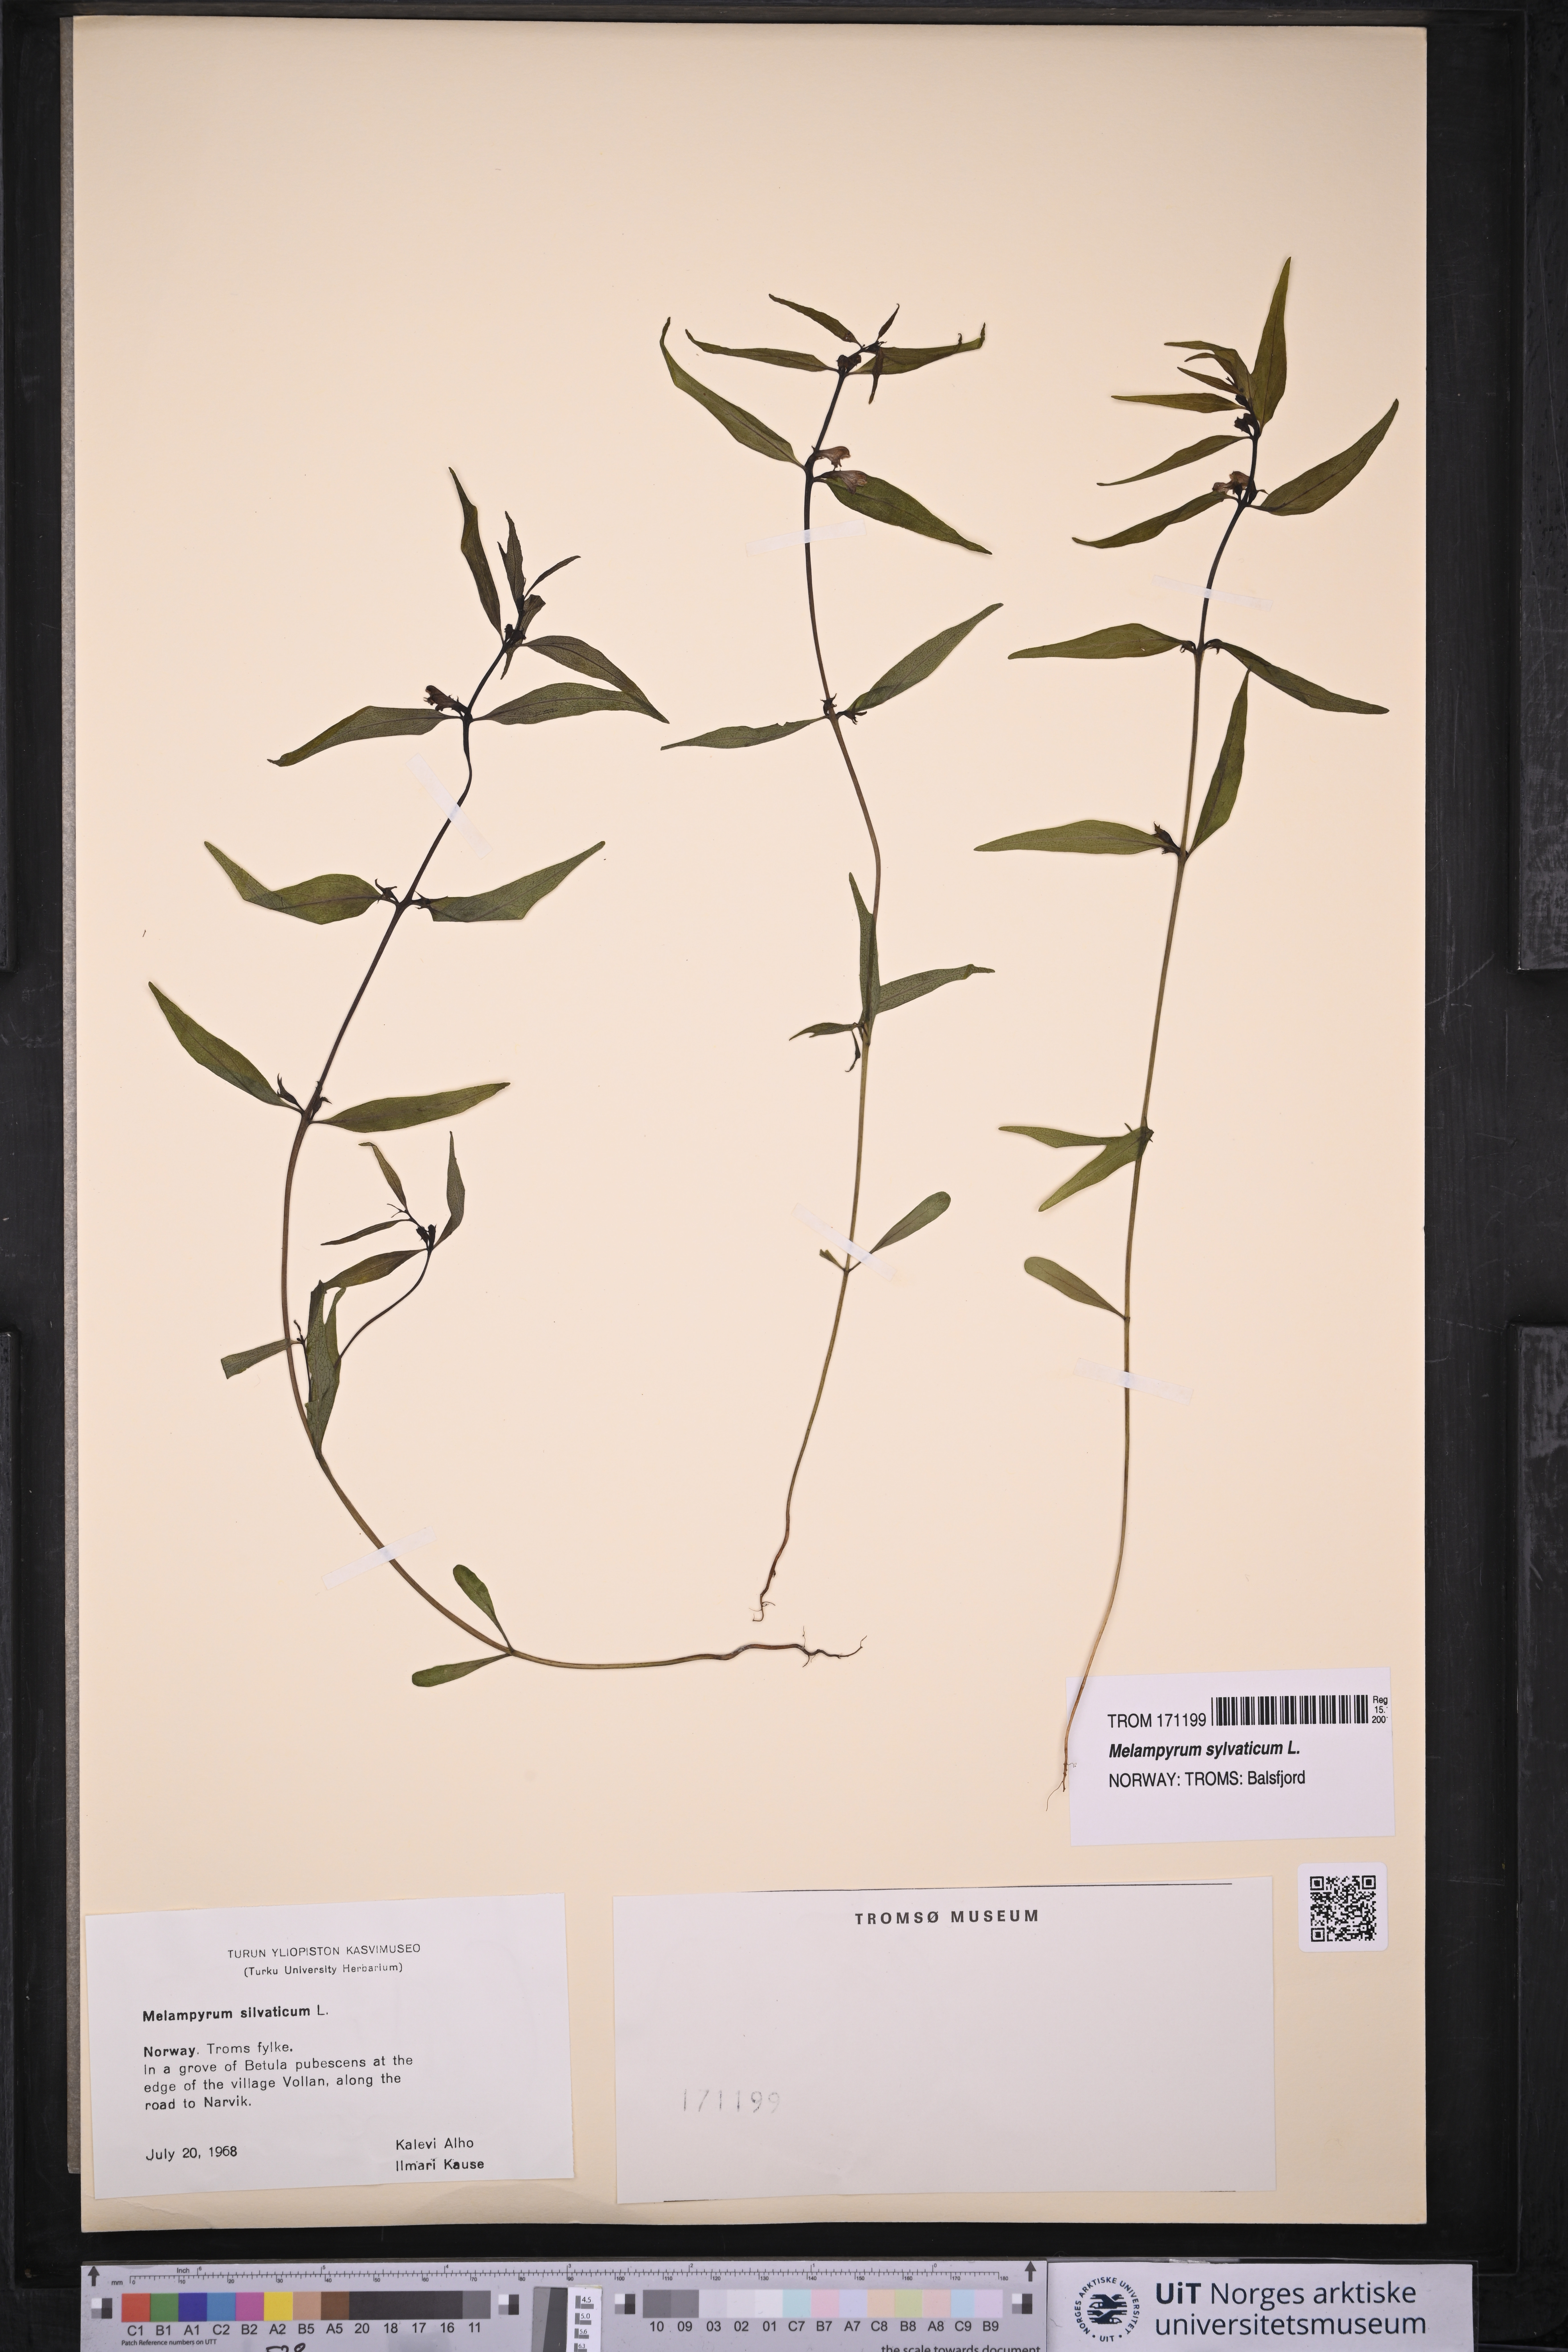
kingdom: Plantae
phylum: Tracheophyta
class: Magnoliopsida
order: Lamiales
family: Orobanchaceae
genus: Melampyrum
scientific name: Melampyrum sylvaticum
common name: Small cow-wheat
